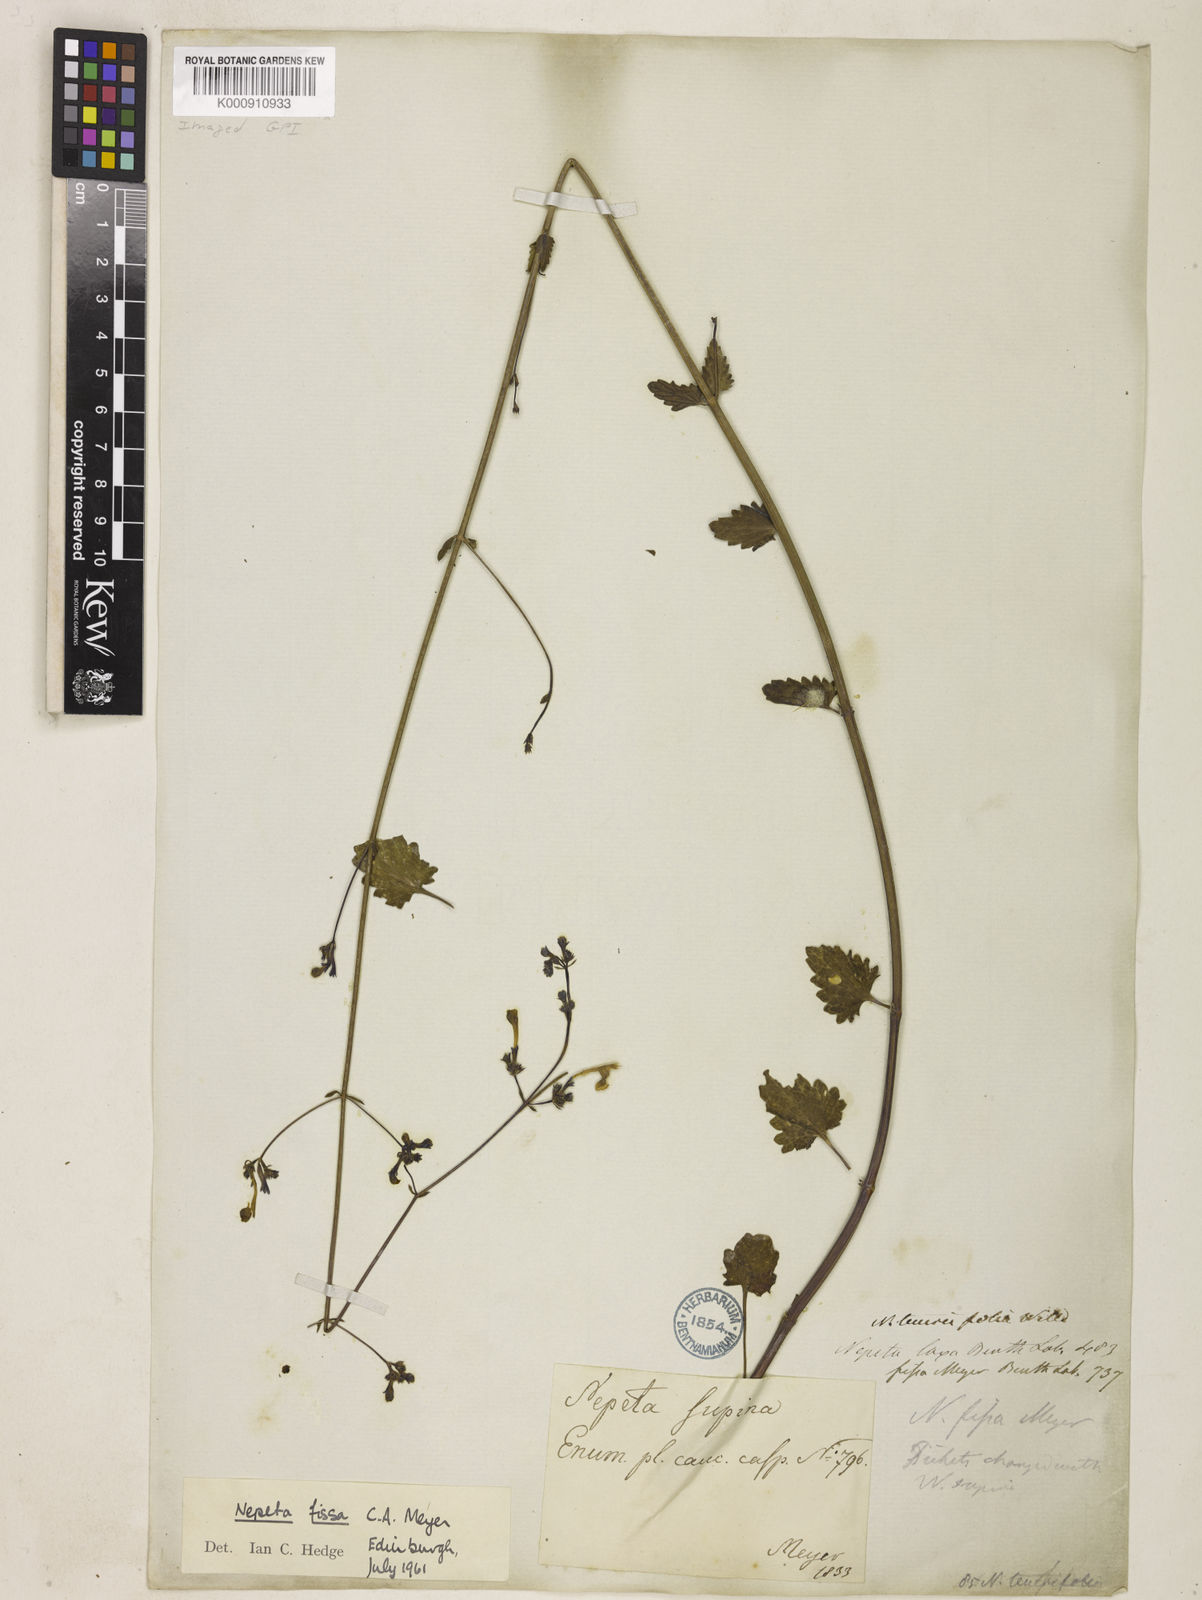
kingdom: Plantae
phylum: Tracheophyta
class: Magnoliopsida
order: Lamiales
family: Lamiaceae
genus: Nepeta
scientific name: Nepeta teucriifolia
